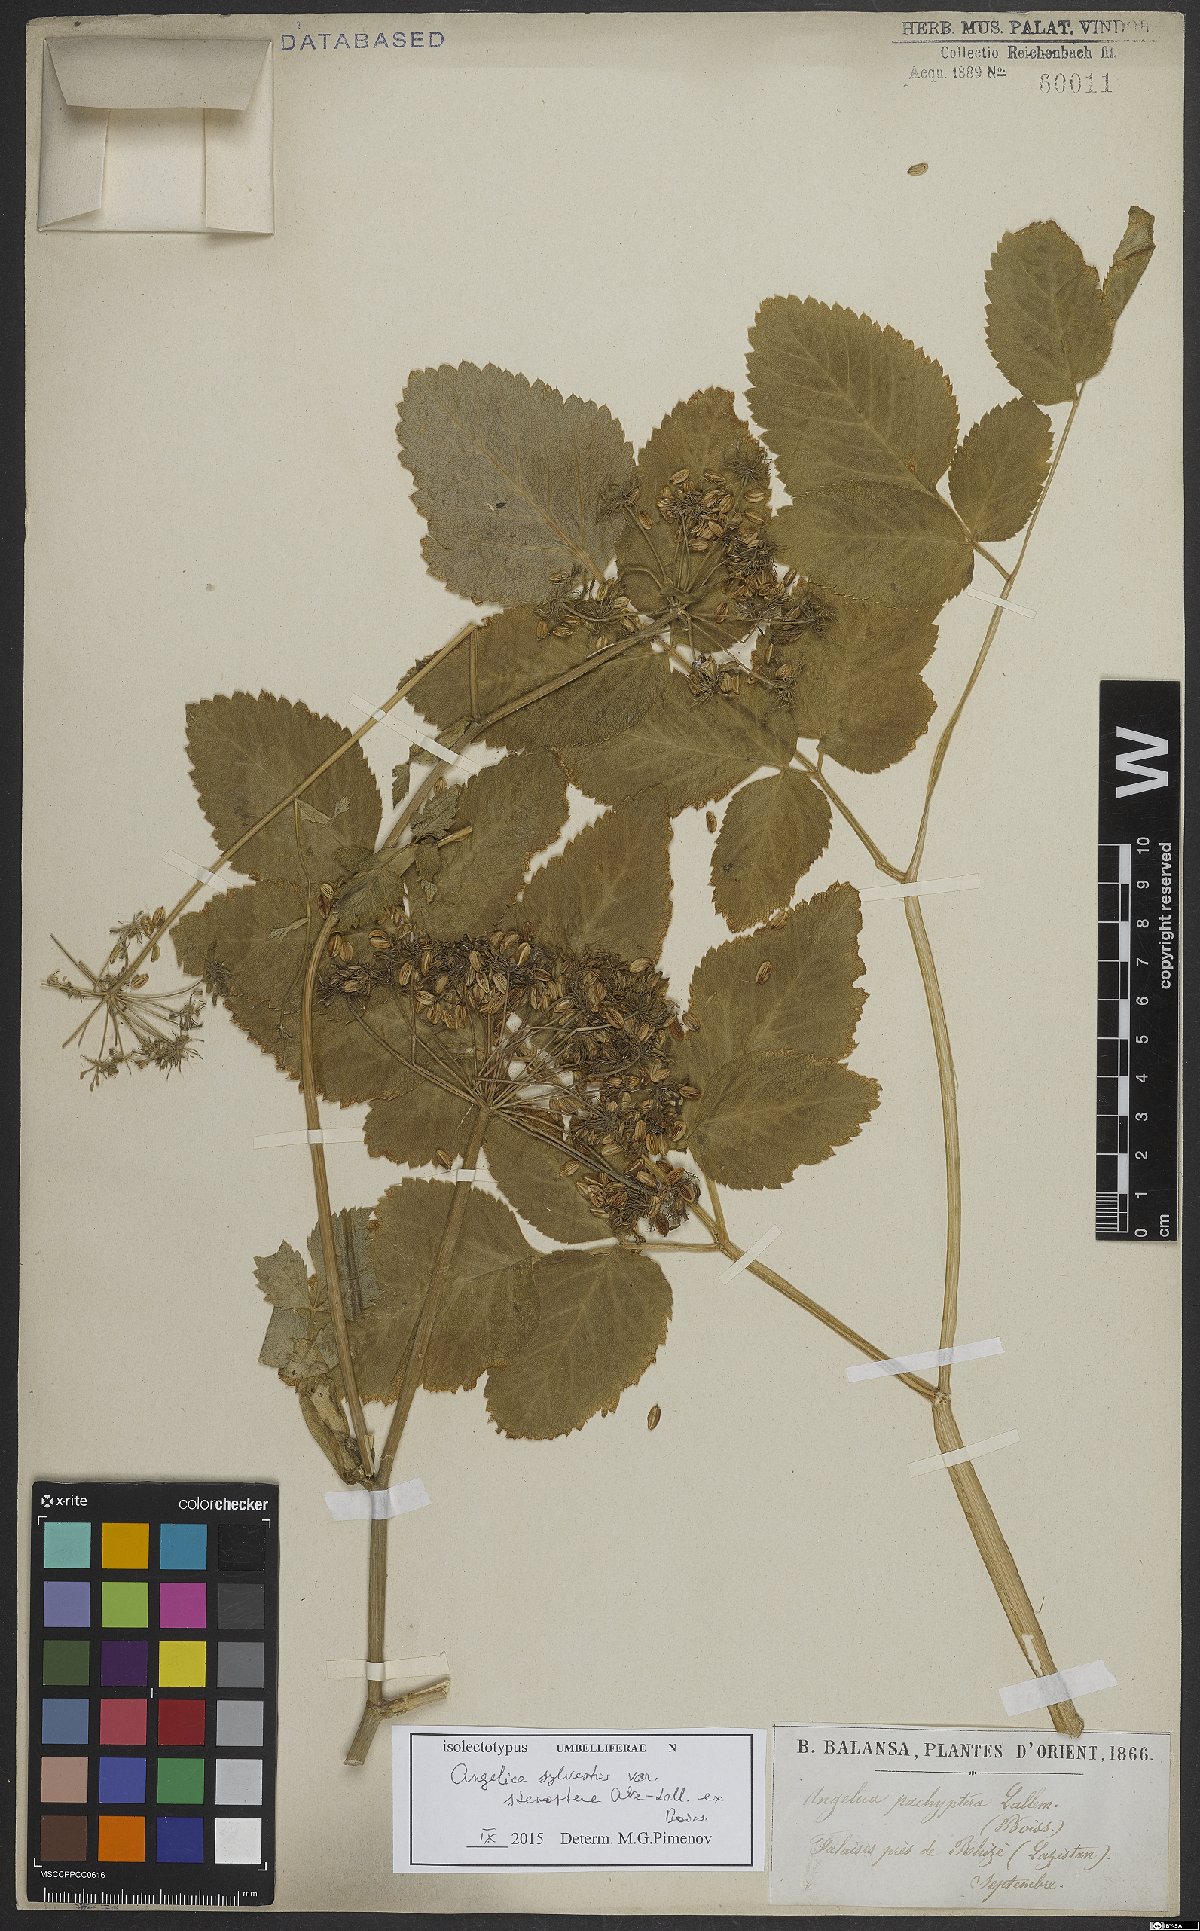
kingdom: Plantae
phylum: Tracheophyta
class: Magnoliopsida
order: Apiales
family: Apiaceae
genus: Angelica
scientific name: Angelica sylvestris
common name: Wild angelica
